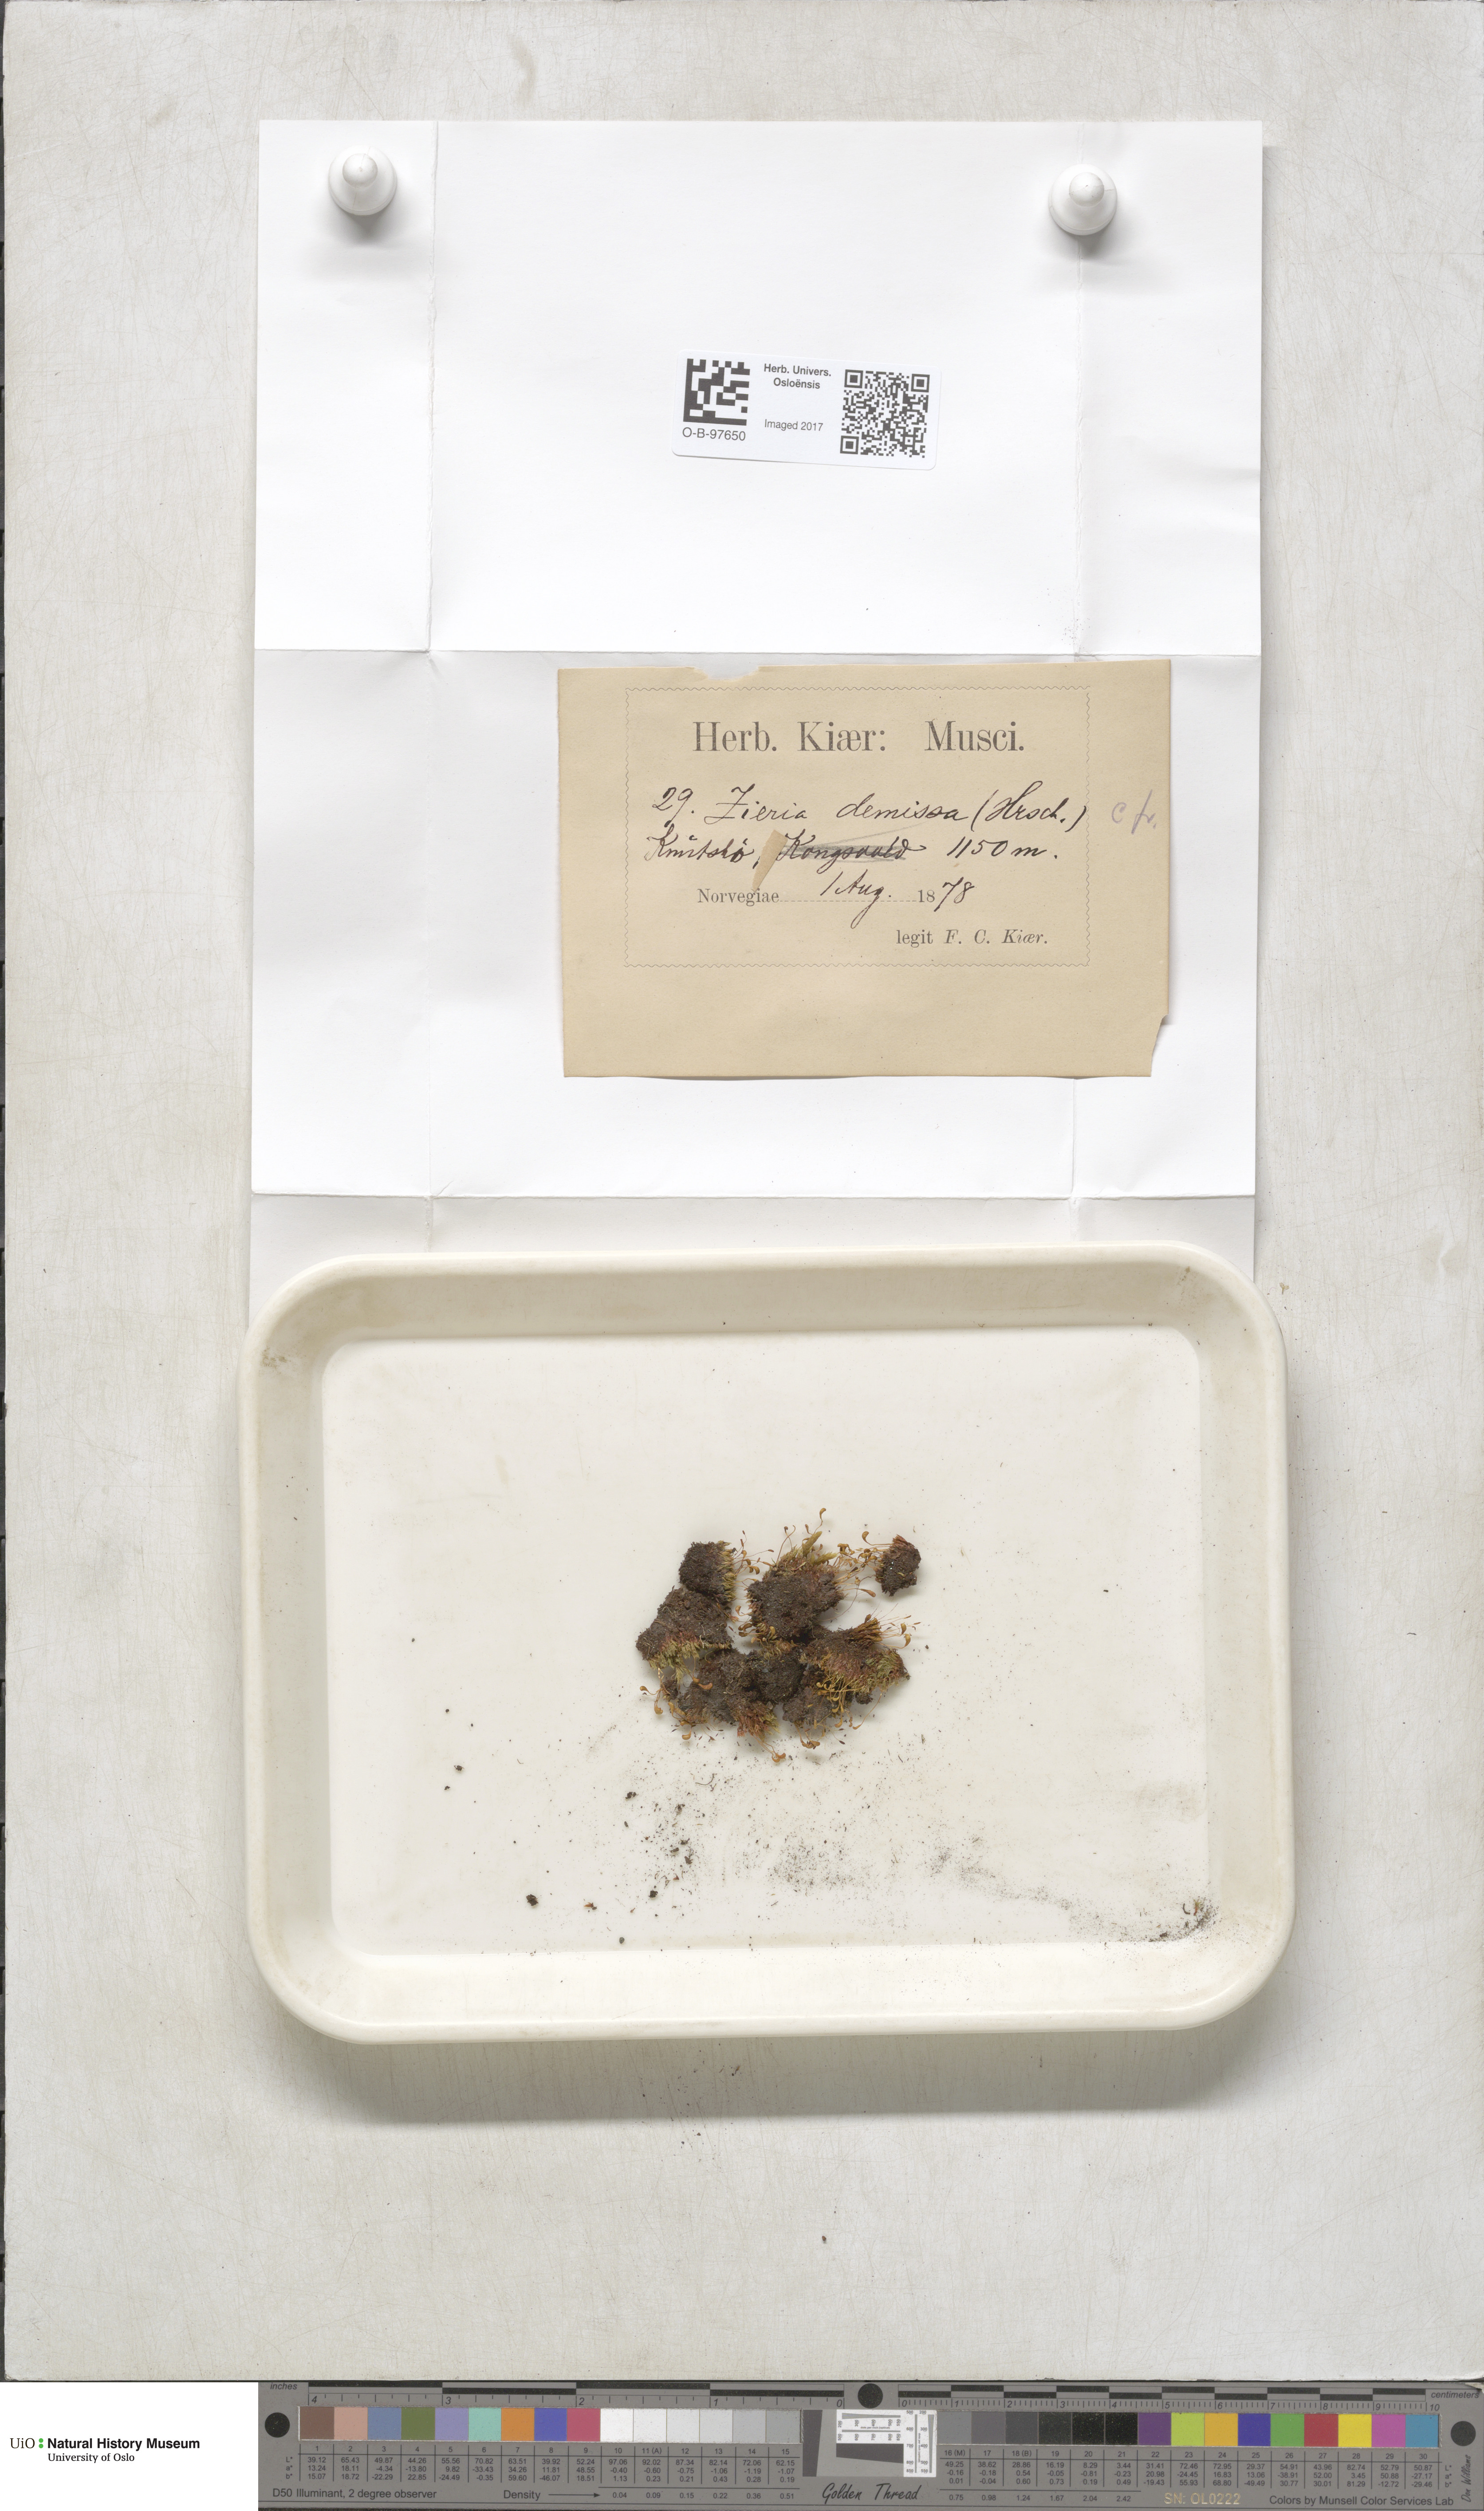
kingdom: Plantae
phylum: Bryophyta
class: Bryopsida
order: Bryales
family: Bryaceae
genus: Plagiobryum
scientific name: Plagiobryum demissum
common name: Drooping hump moss
